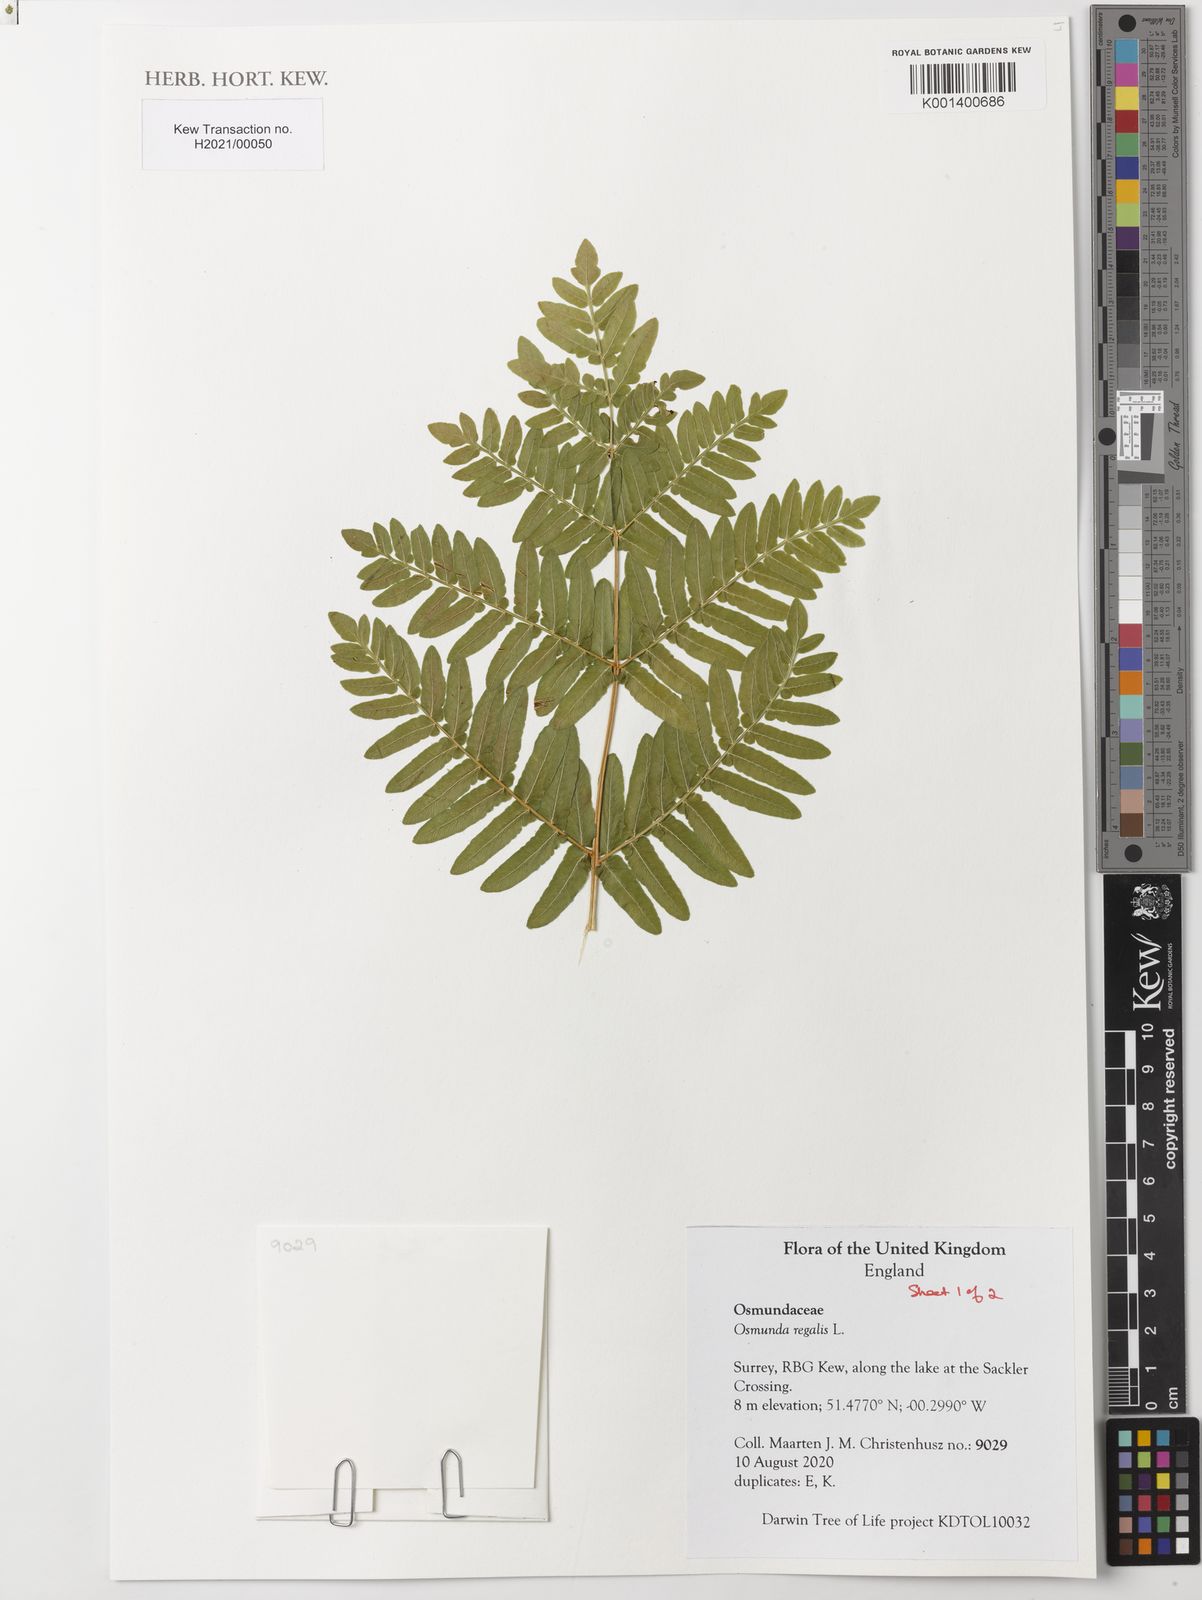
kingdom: Plantae
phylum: Tracheophyta
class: Polypodiopsida
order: Osmundales
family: Osmundaceae
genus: Osmunda
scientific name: Osmunda regalis
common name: Royal fern
